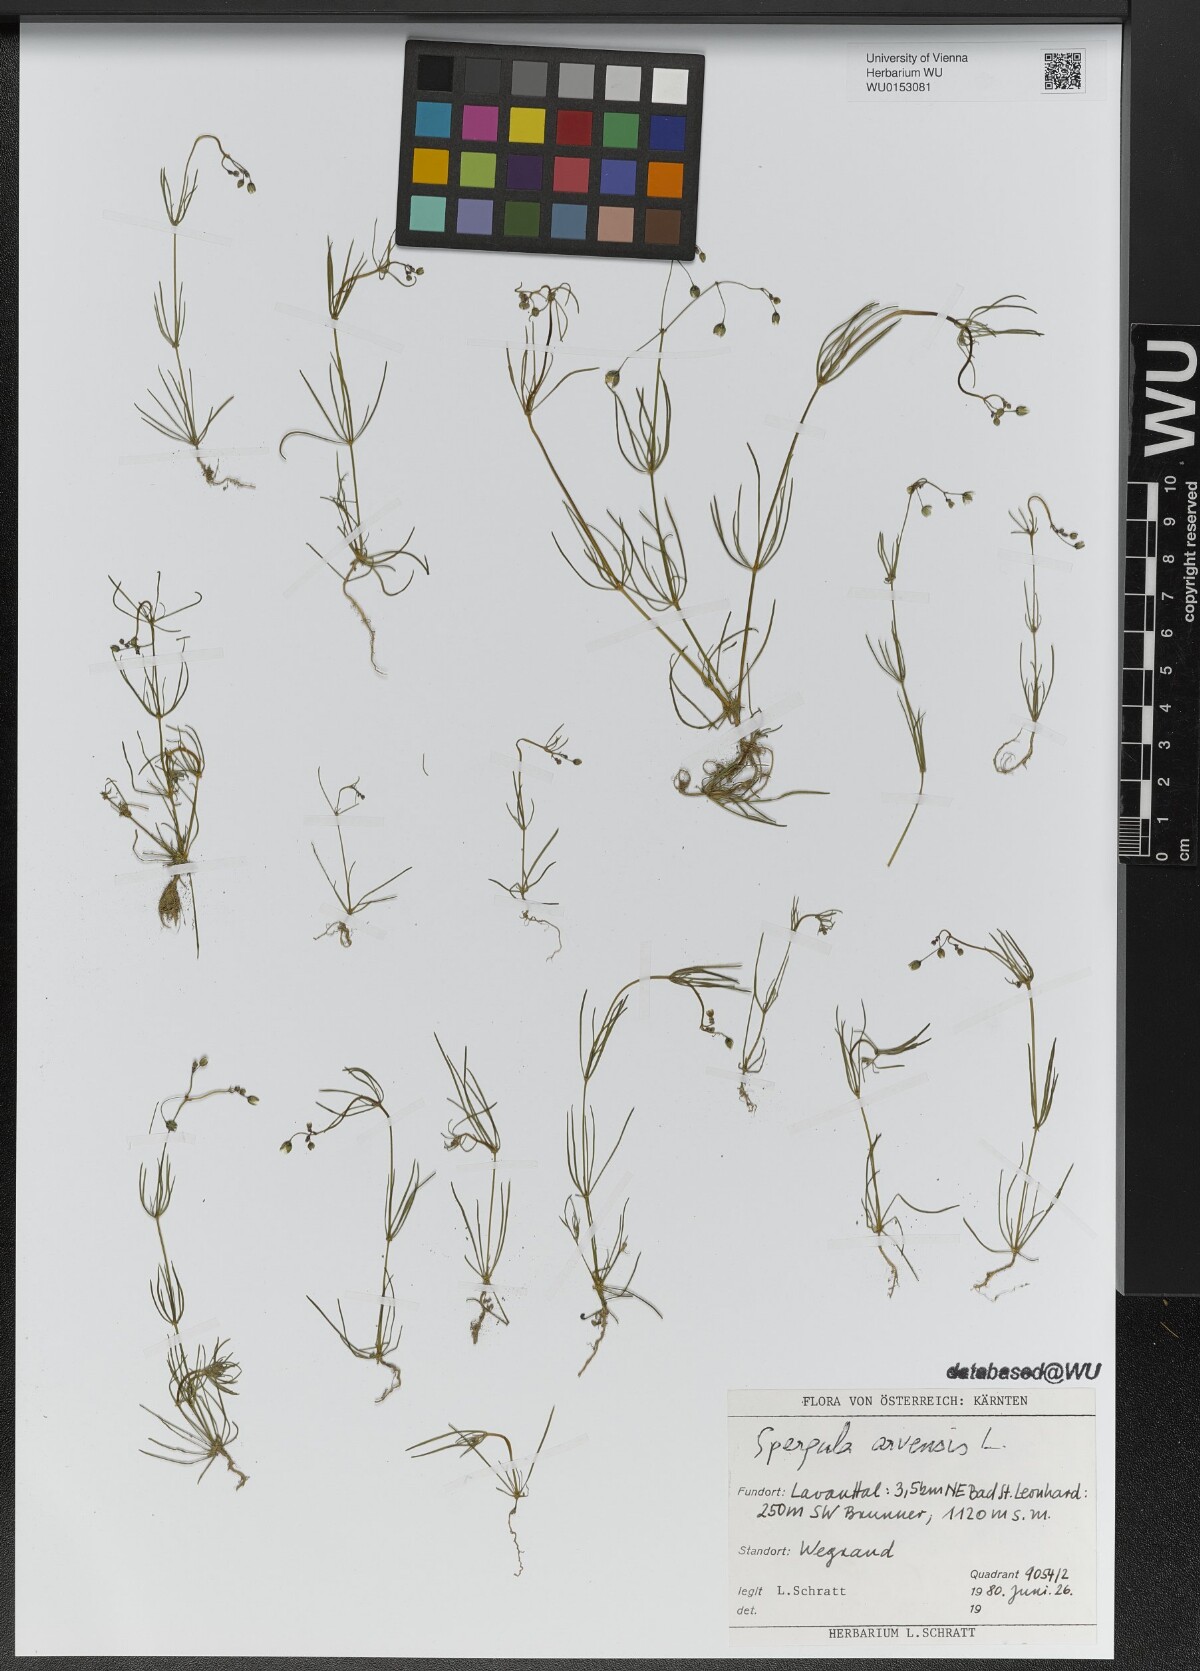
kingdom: Plantae
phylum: Tracheophyta
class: Magnoliopsida
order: Caryophyllales
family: Caryophyllaceae
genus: Spergula
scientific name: Spergula arvensis
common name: Corn spurrey
